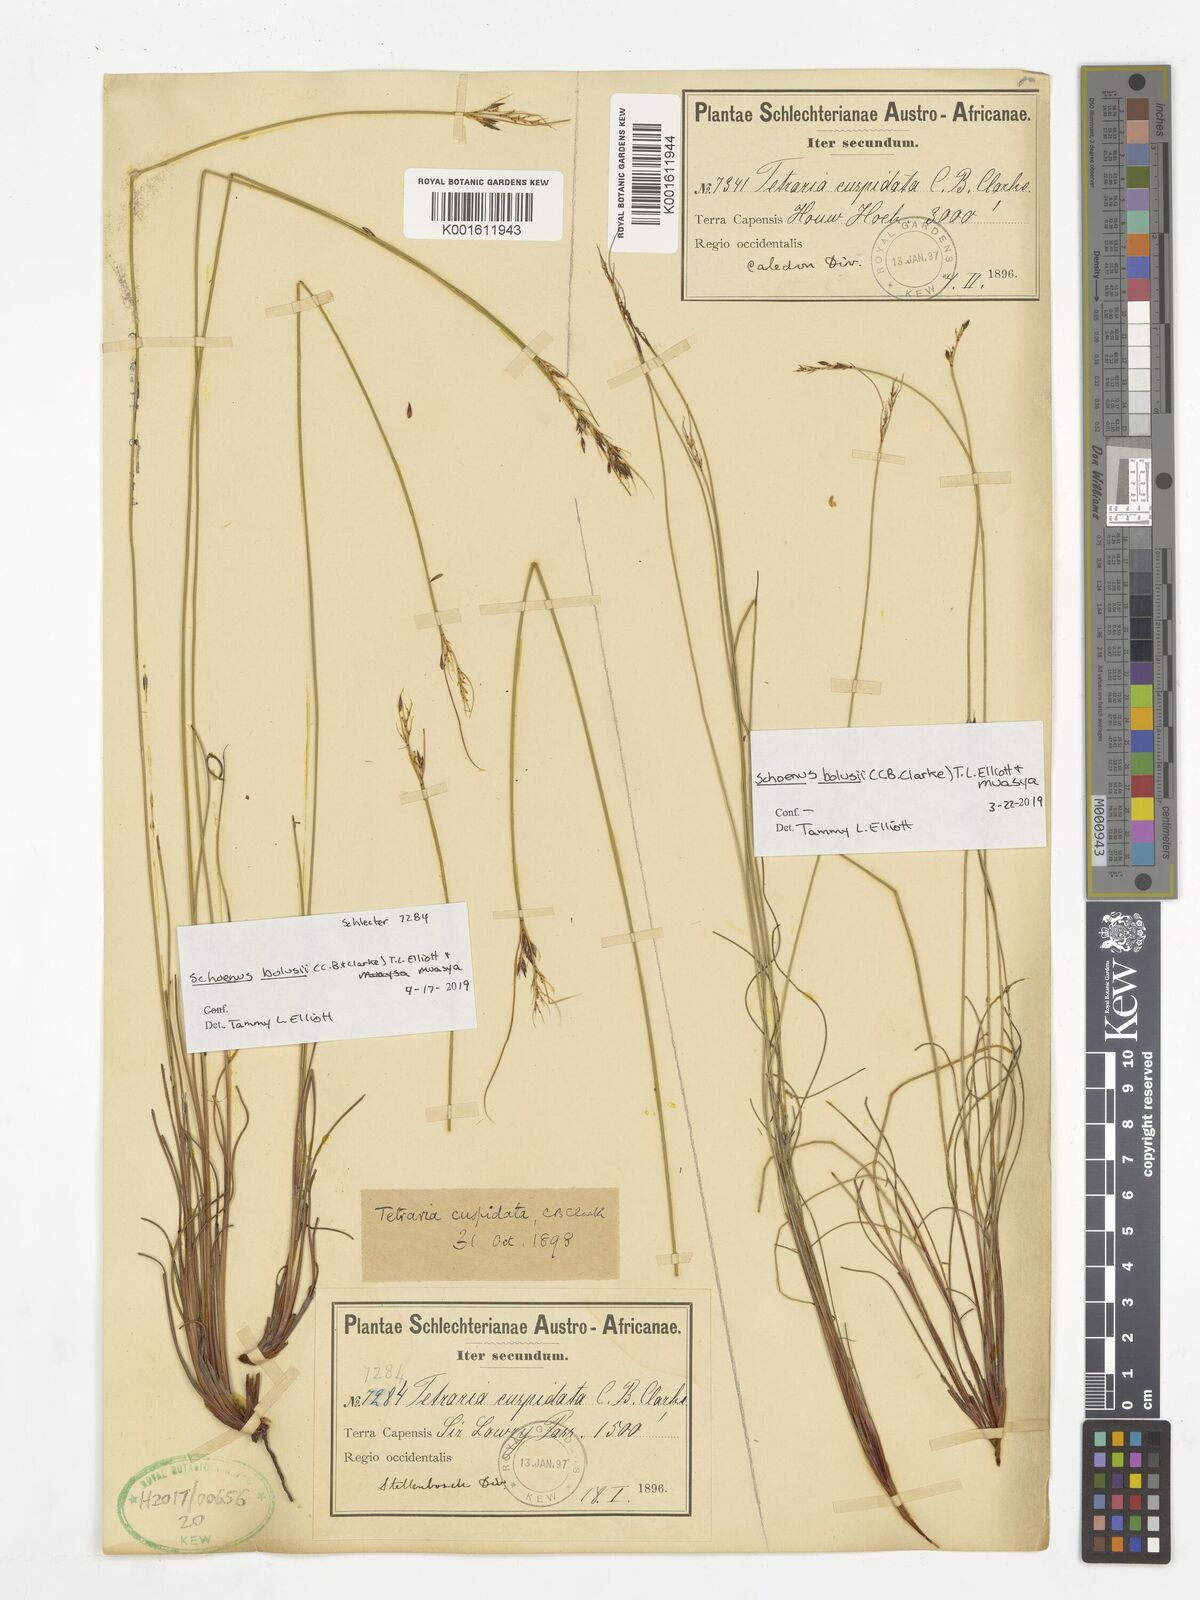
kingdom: Plantae
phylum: Tracheophyta
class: Liliopsida
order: Poales
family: Cyperaceae
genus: Schoenus
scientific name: Schoenus bolusii
